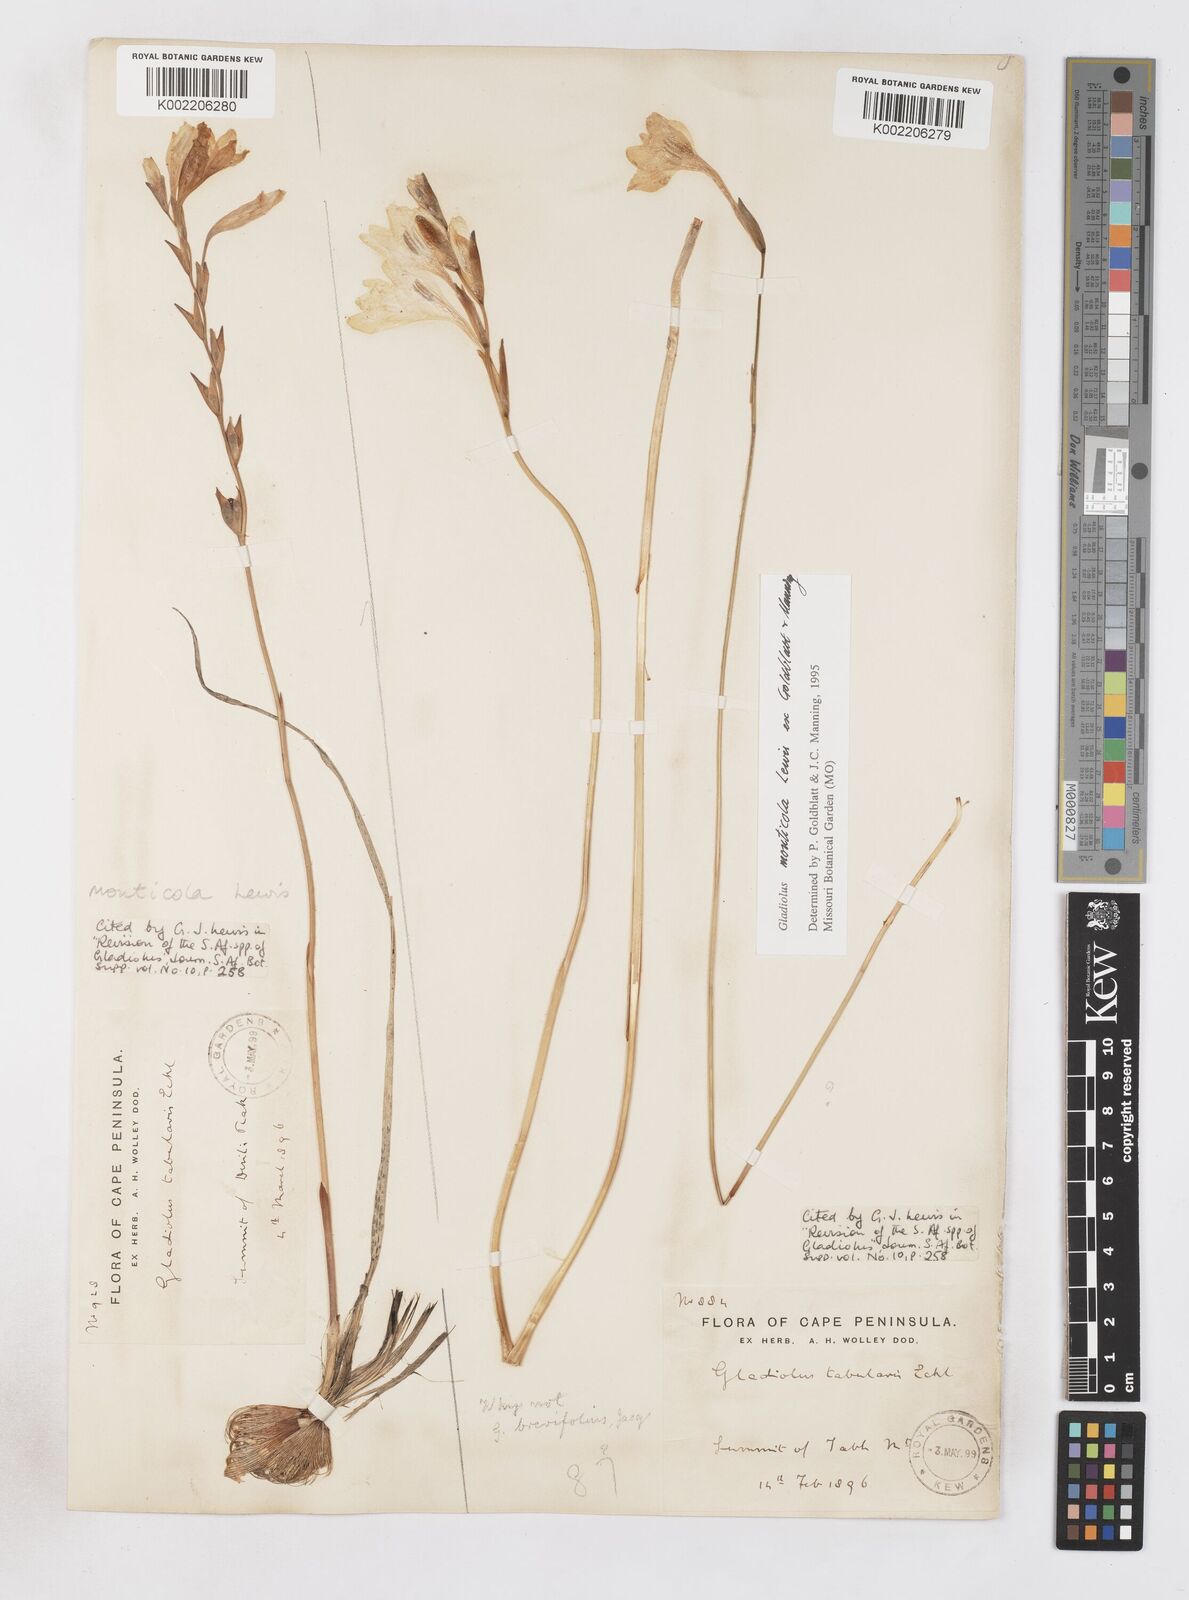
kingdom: Plantae
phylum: Tracheophyta
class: Liliopsida
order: Asparagales
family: Iridaceae
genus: Gladiolus
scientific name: Gladiolus
